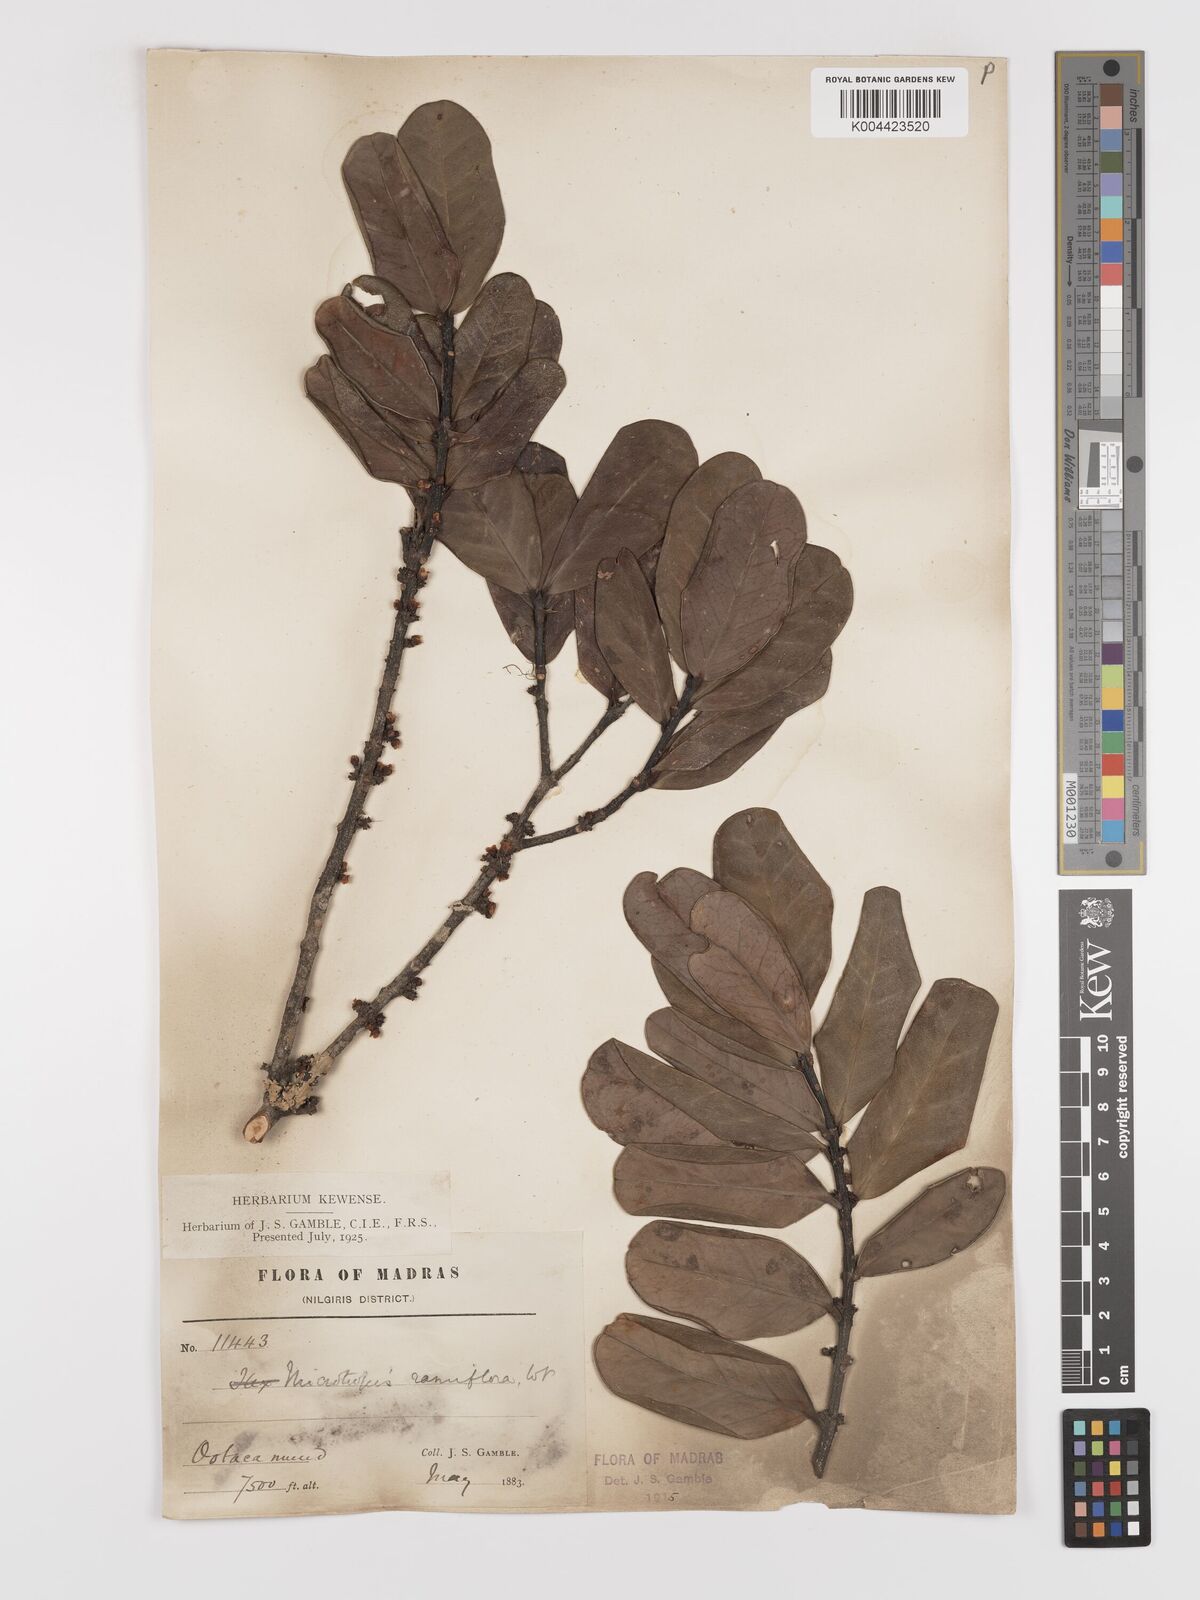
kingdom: Plantae
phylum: Tracheophyta
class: Magnoliopsida
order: Celastrales
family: Celastraceae
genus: Microtropis
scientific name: Microtropis ramiflora
